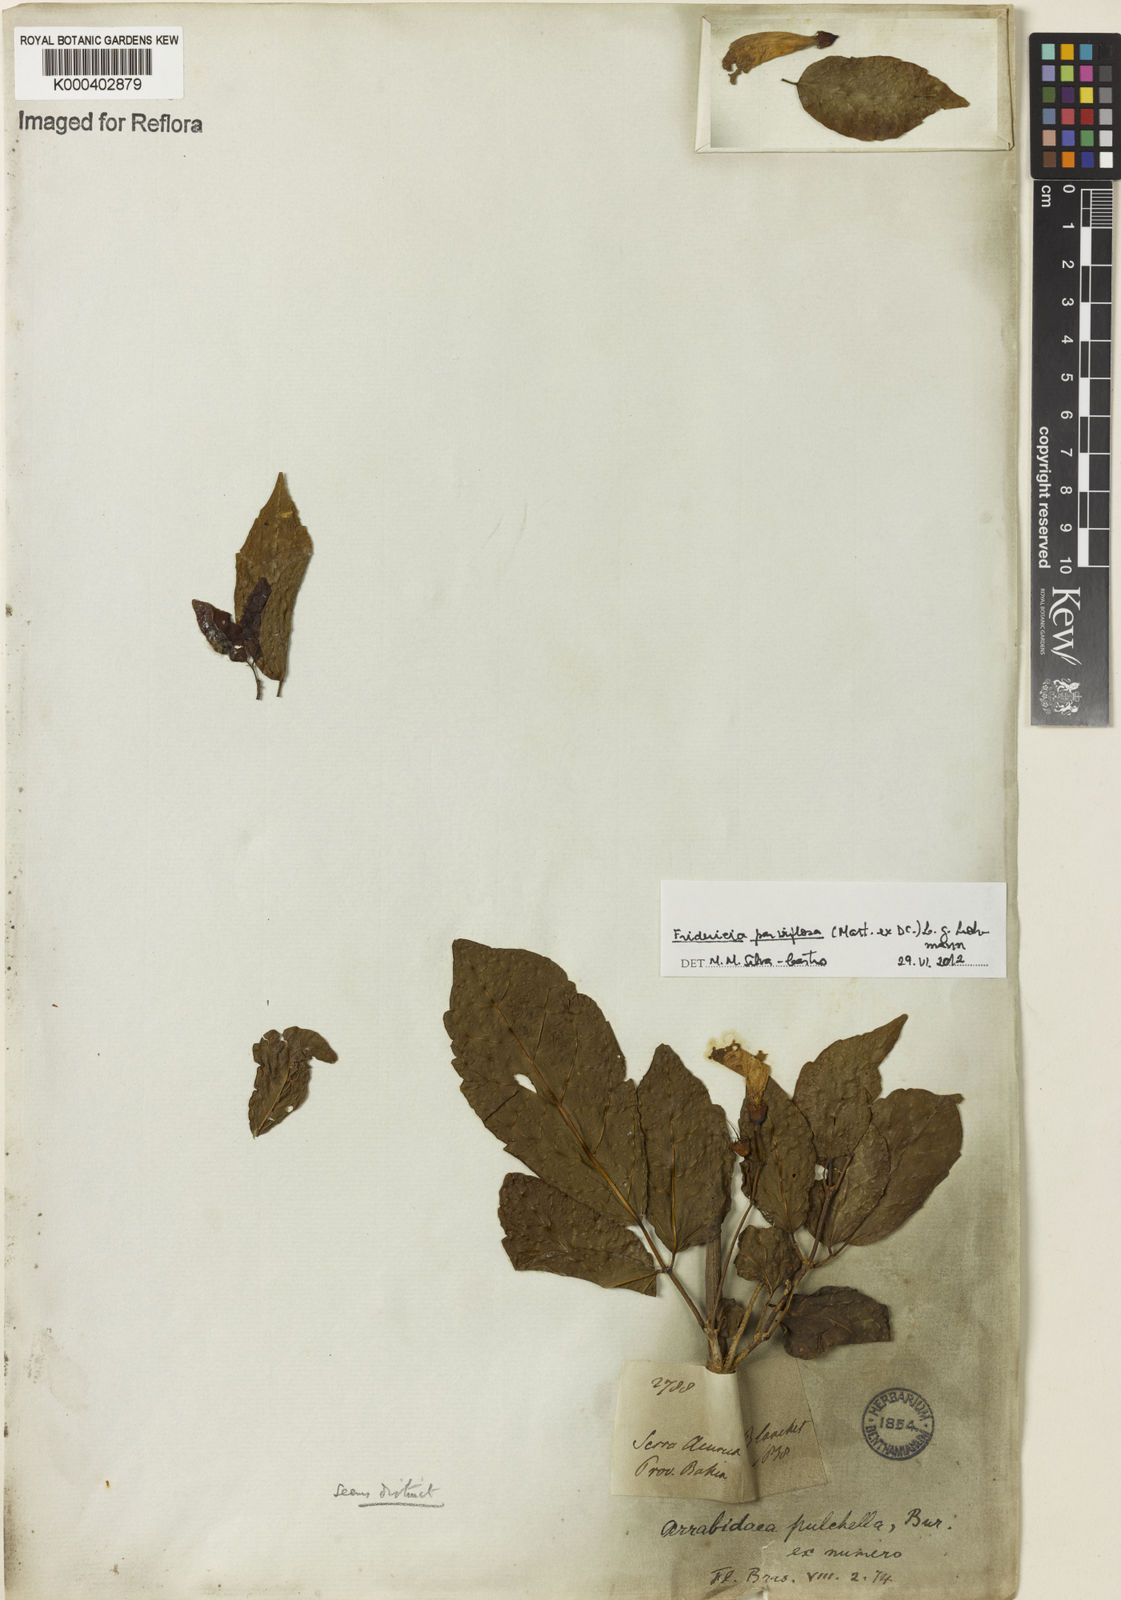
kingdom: Plantae
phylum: Tracheophyta
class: Magnoliopsida
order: Lamiales
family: Bignoniaceae
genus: Tanaecium
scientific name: Tanaecium parviflorum
